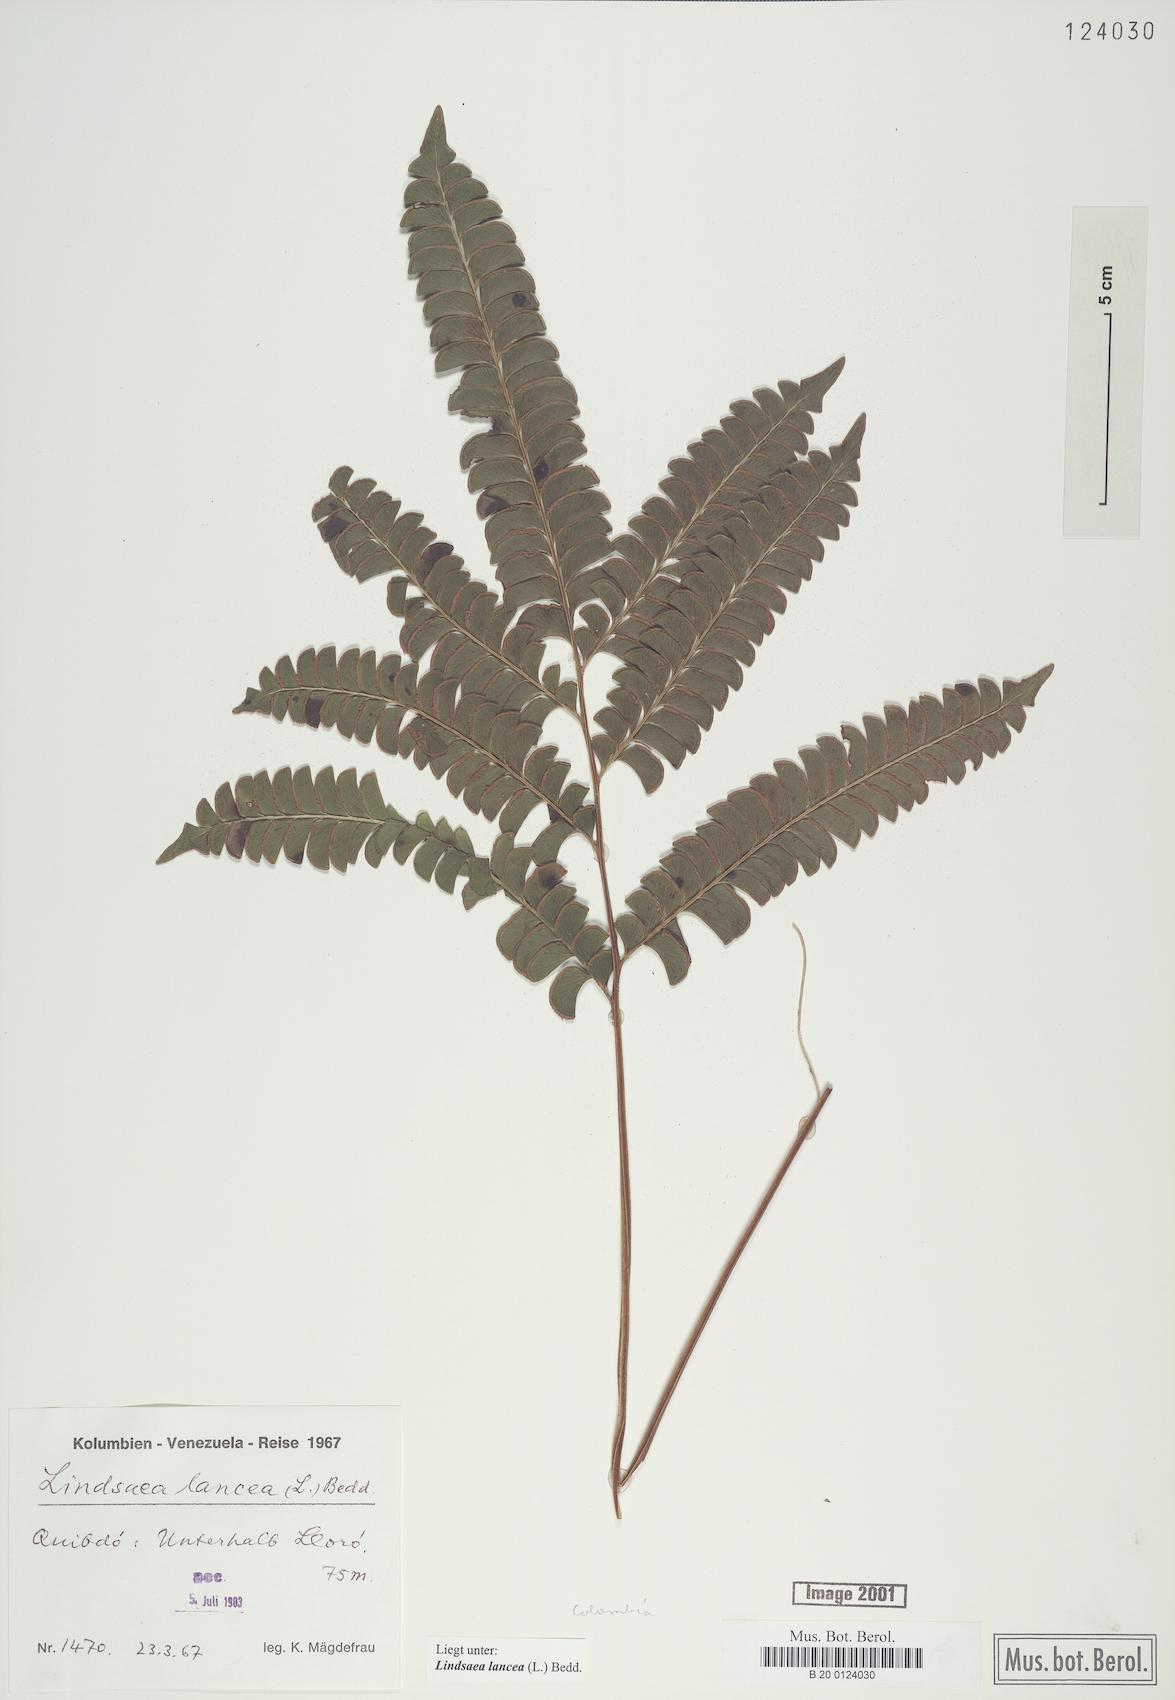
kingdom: Plantae
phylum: Tracheophyta
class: Polypodiopsida
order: Polypodiales
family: Lindsaeaceae
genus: Lindsaea
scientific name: Lindsaea lancea
